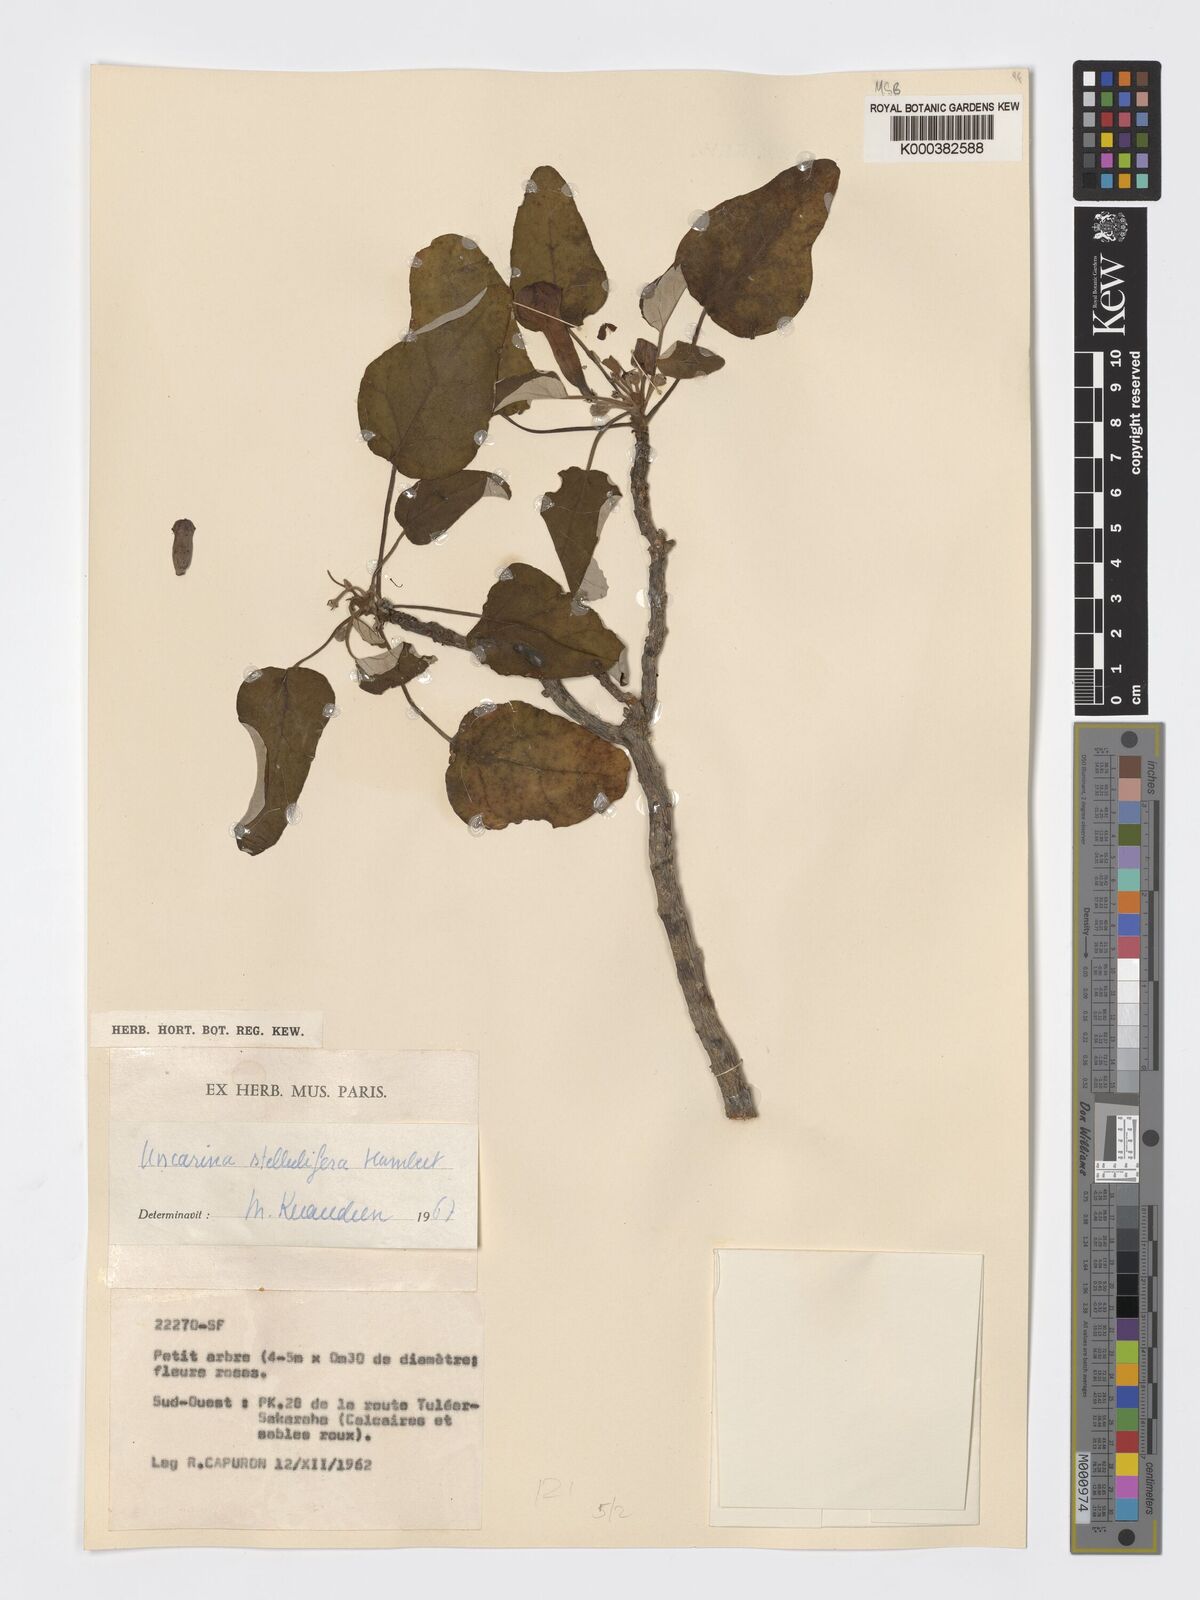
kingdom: Plantae
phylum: Tracheophyta
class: Magnoliopsida
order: Lamiales
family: Pedaliaceae
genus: Uncarina
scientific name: Uncarina stellulifera
